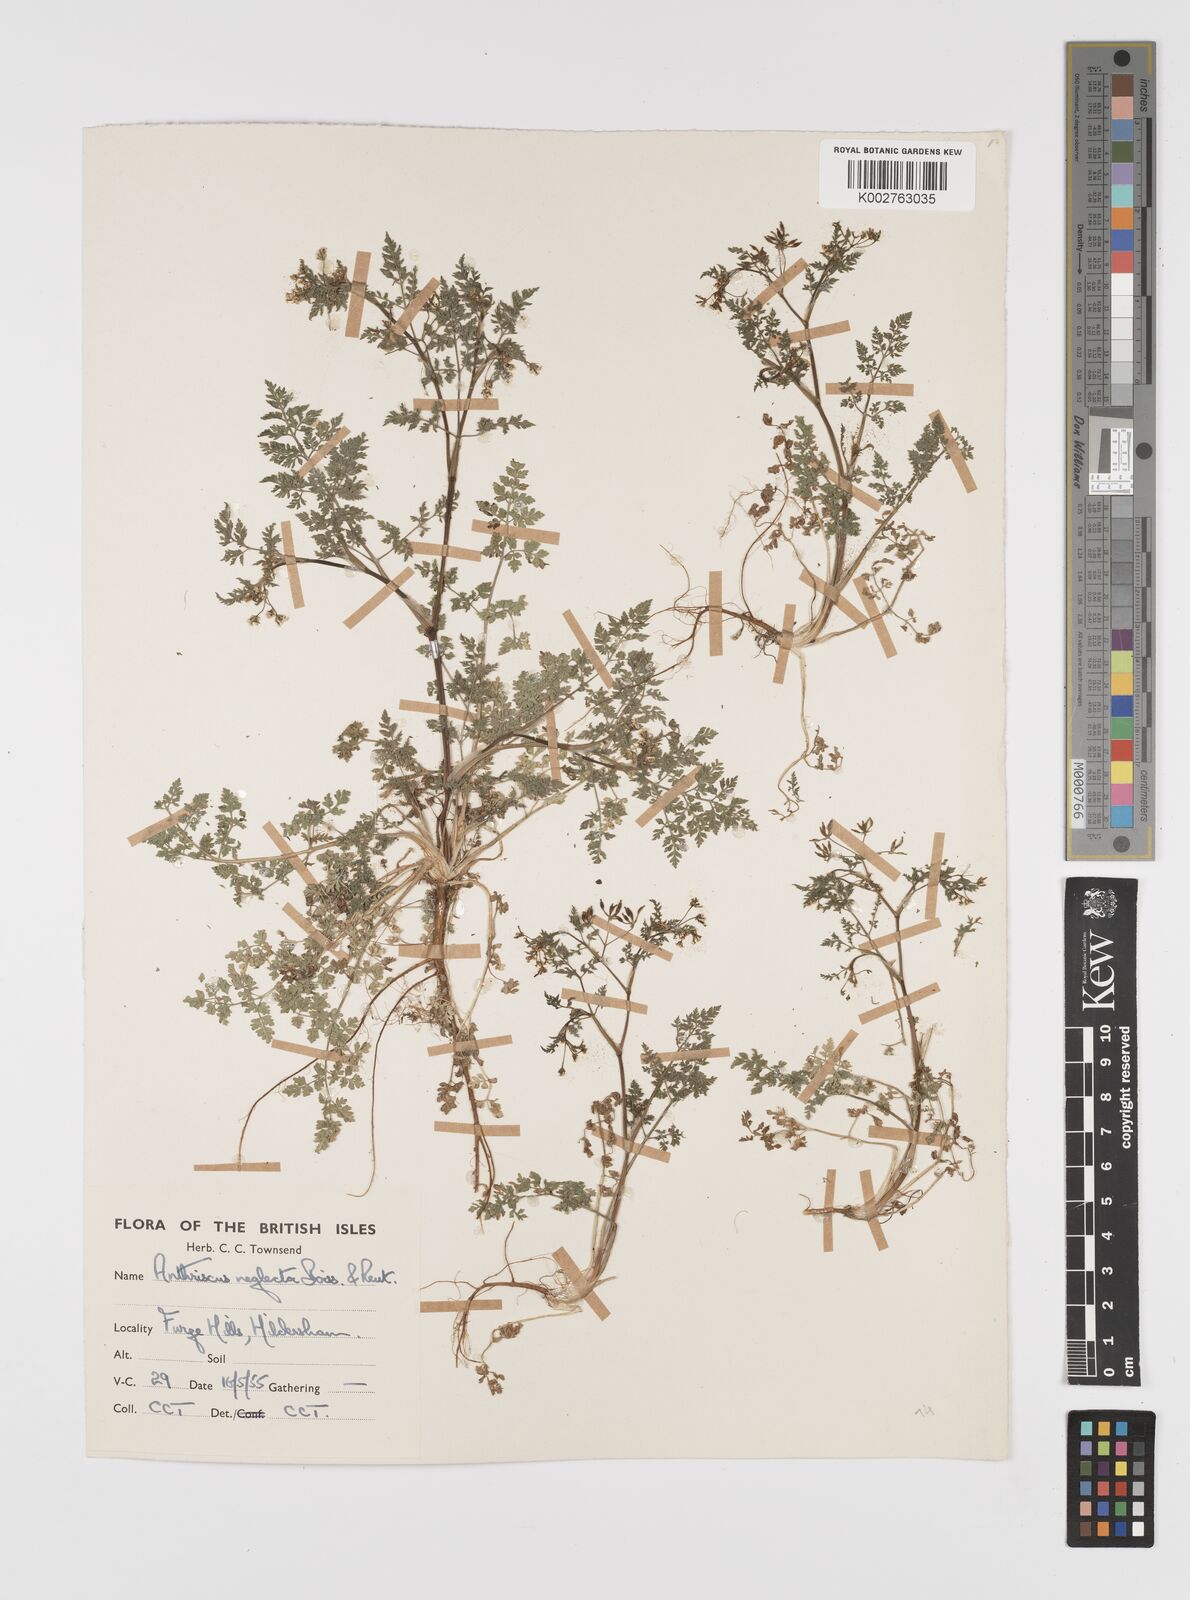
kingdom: Plantae
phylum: Tracheophyta
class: Magnoliopsida
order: Apiales
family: Apiaceae
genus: Anthriscus
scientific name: Anthriscus caucalis
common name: Bur chervil
